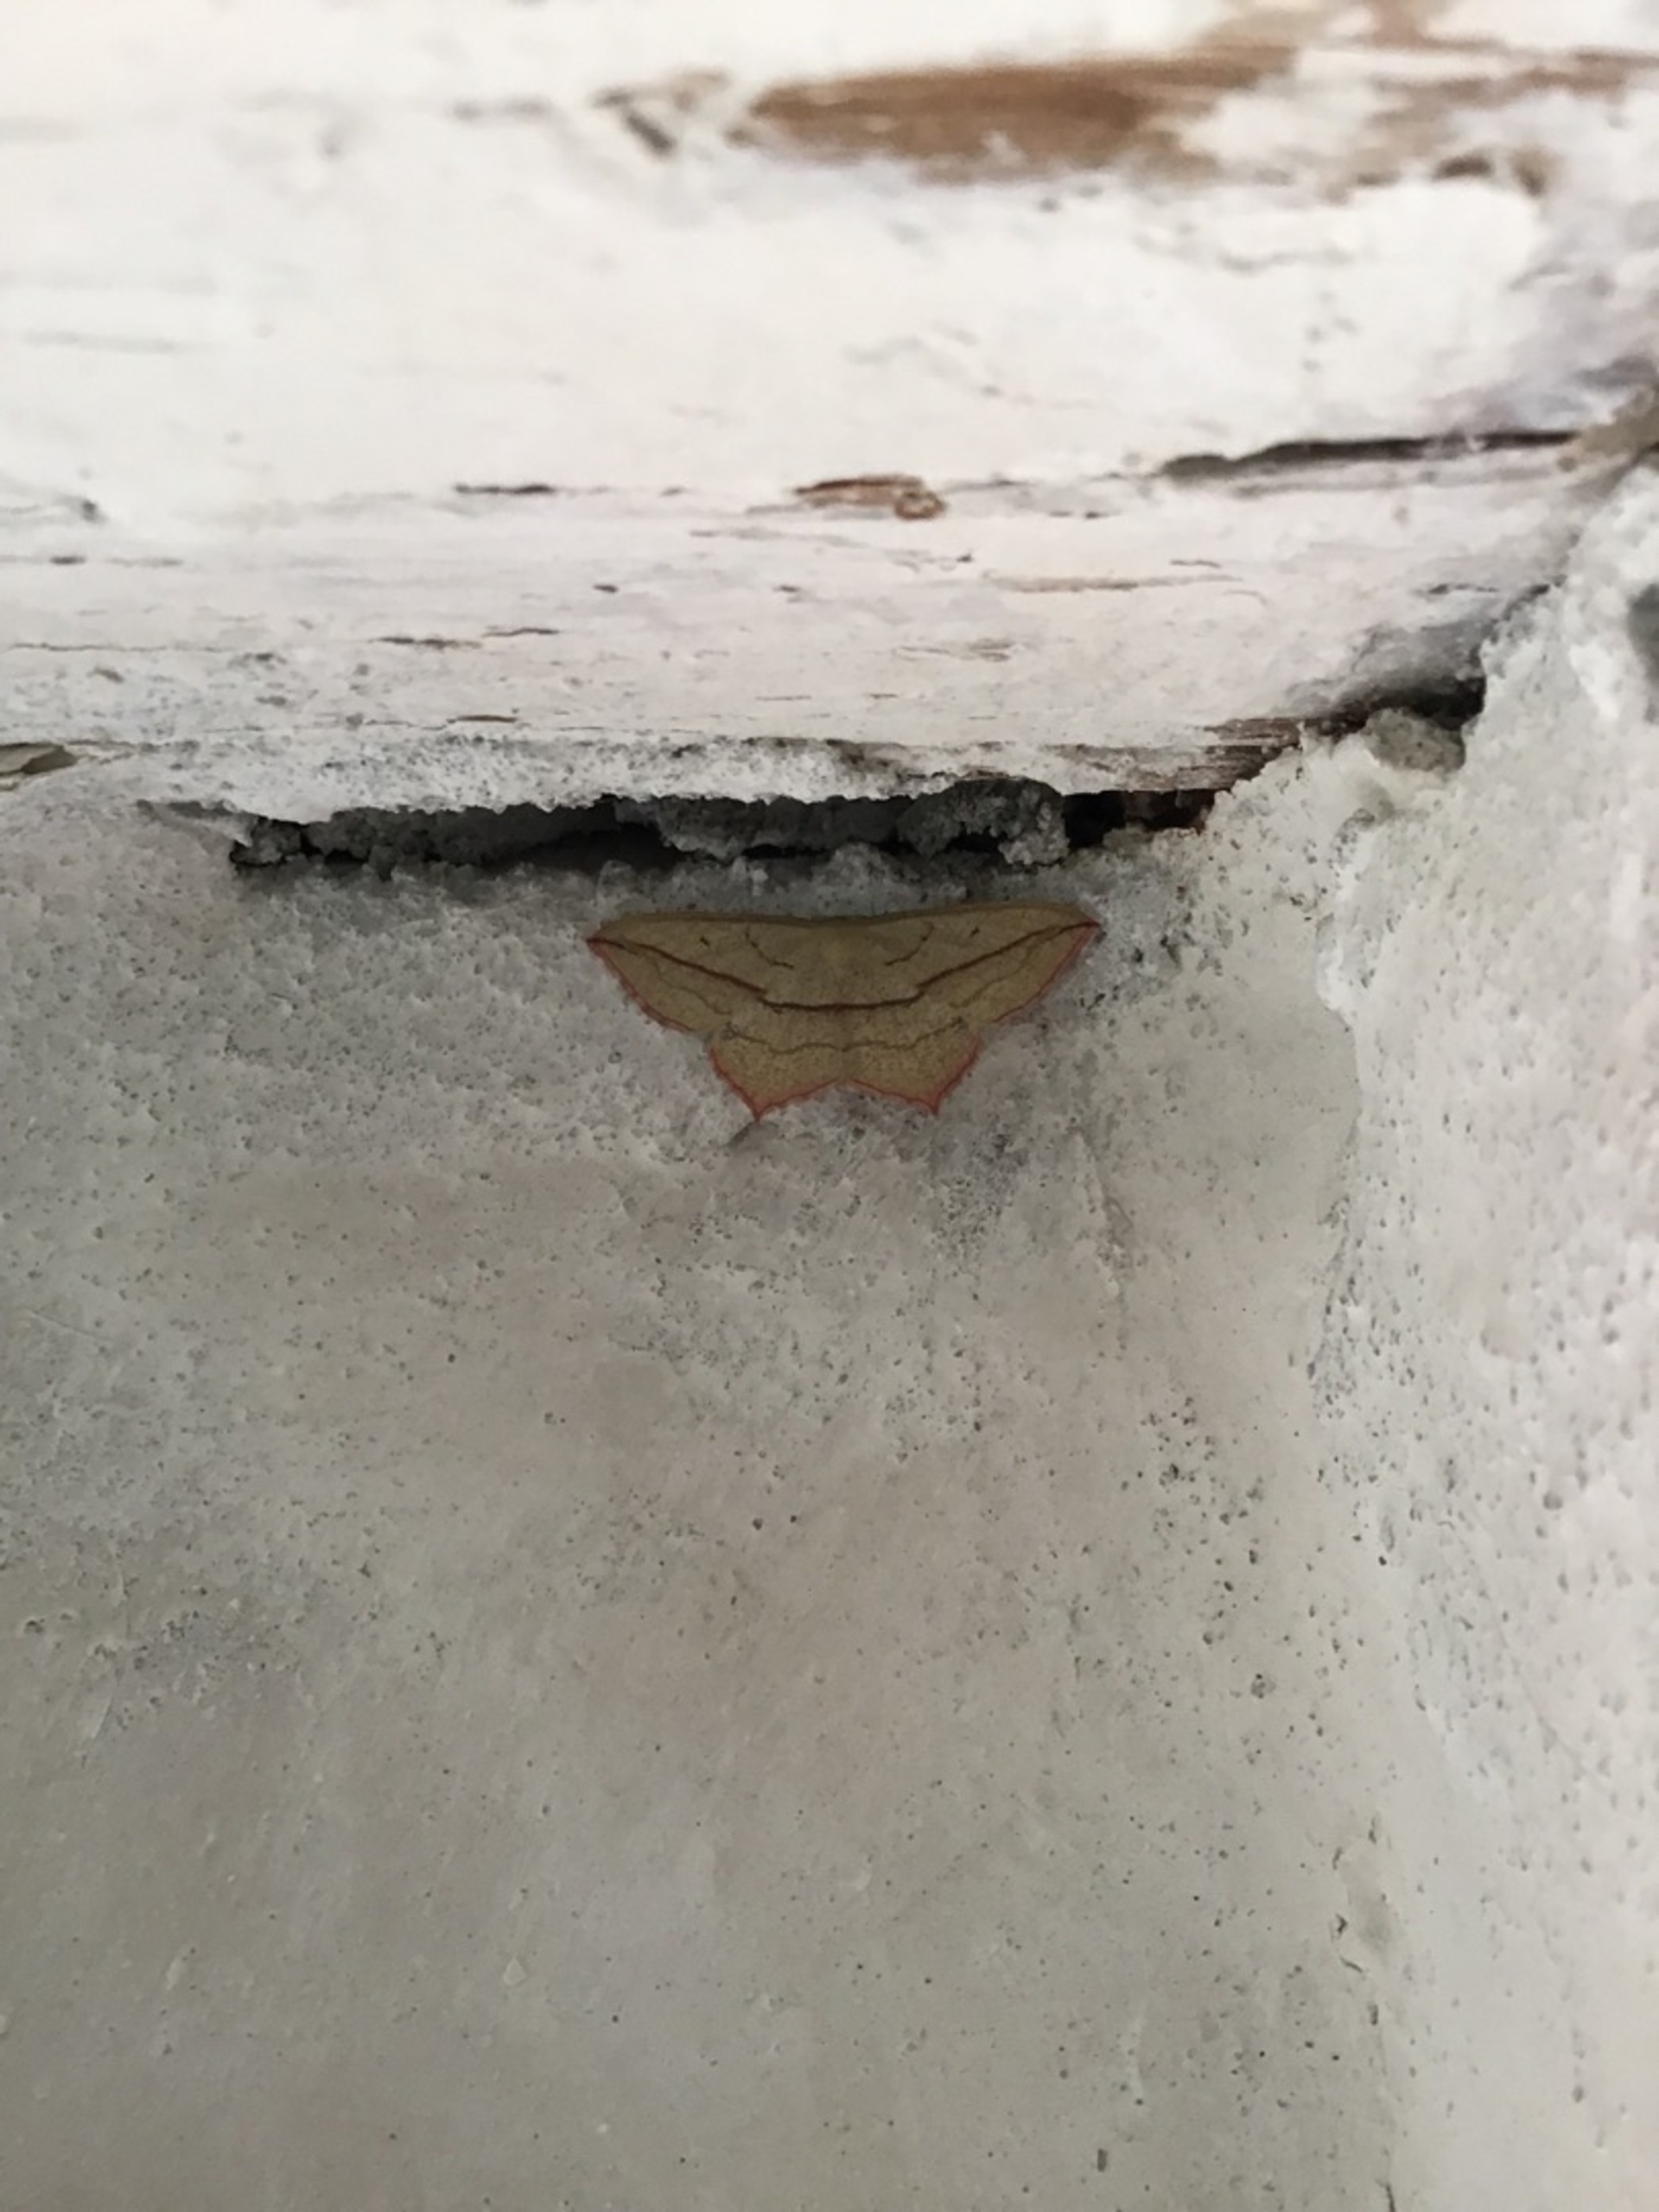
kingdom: Animalia
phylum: Arthropoda
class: Insecta
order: Lepidoptera
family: Geometridae
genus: Timandra
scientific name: Timandra comae
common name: Gul syremåler
